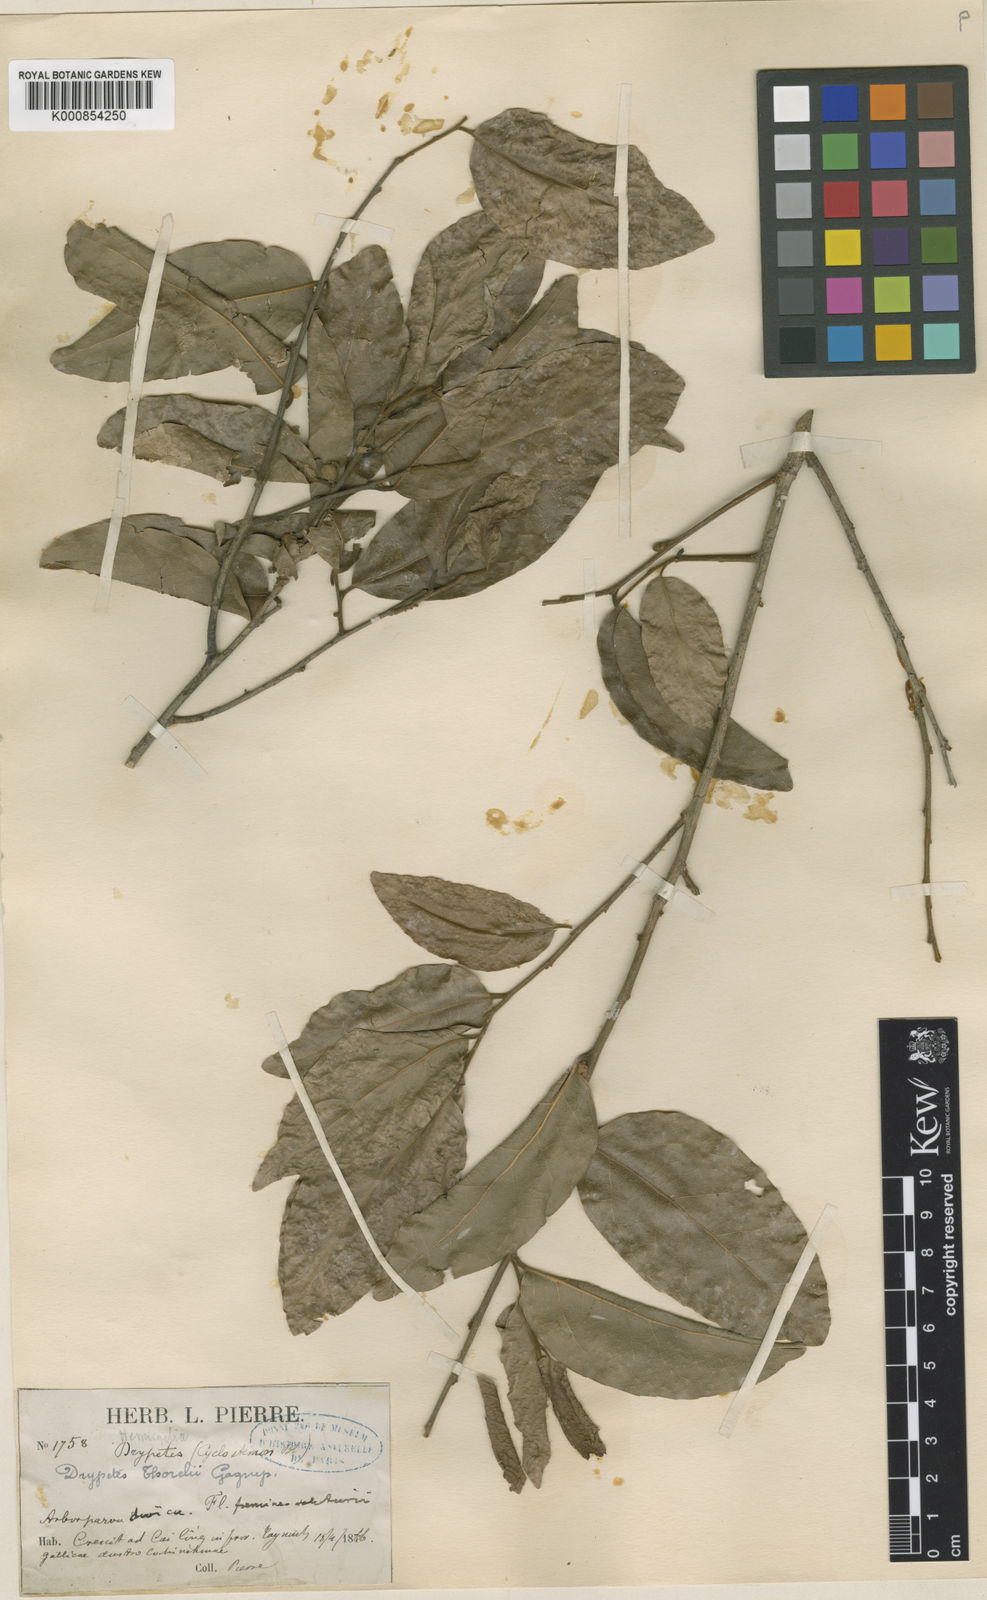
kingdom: Plantae
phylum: Tracheophyta
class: Magnoliopsida
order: Malpighiales
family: Putranjivaceae
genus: Drypetes
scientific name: Drypetes thorelii
